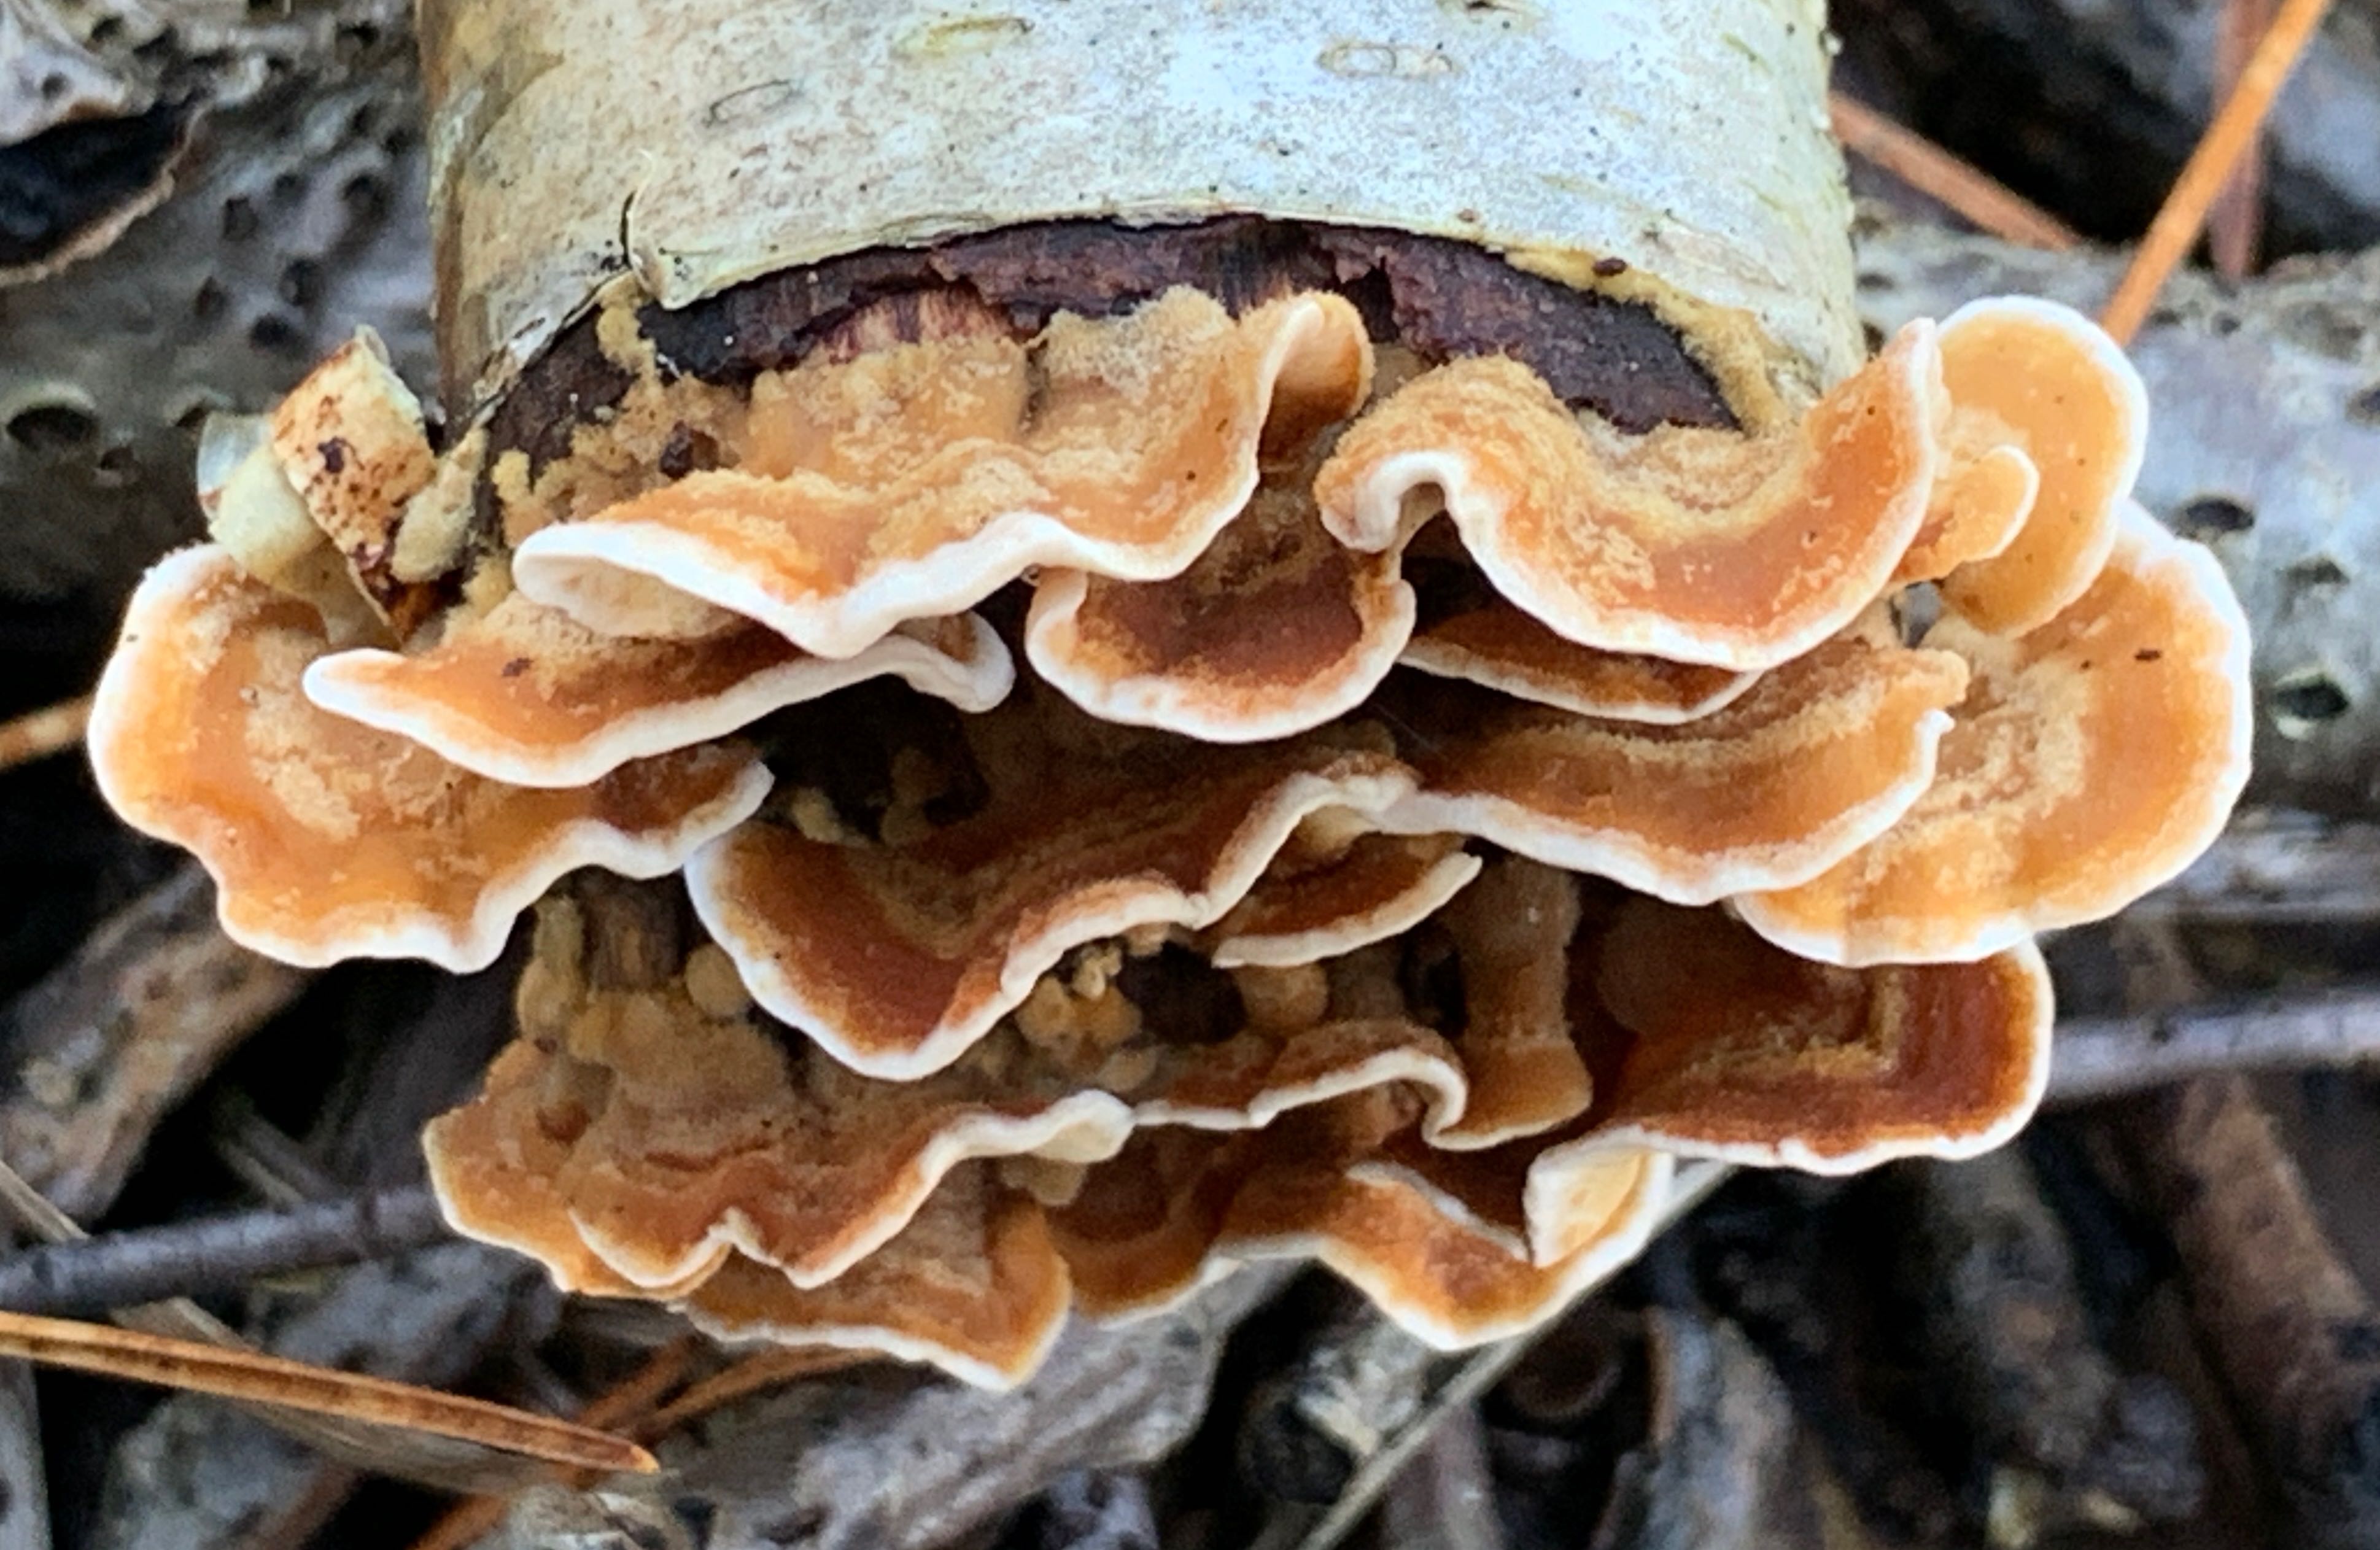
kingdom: Fungi
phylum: Basidiomycota
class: Agaricomycetes
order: Russulales
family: Stereaceae
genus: Stereum
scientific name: Stereum hirsutum
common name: håret lædersvamp
